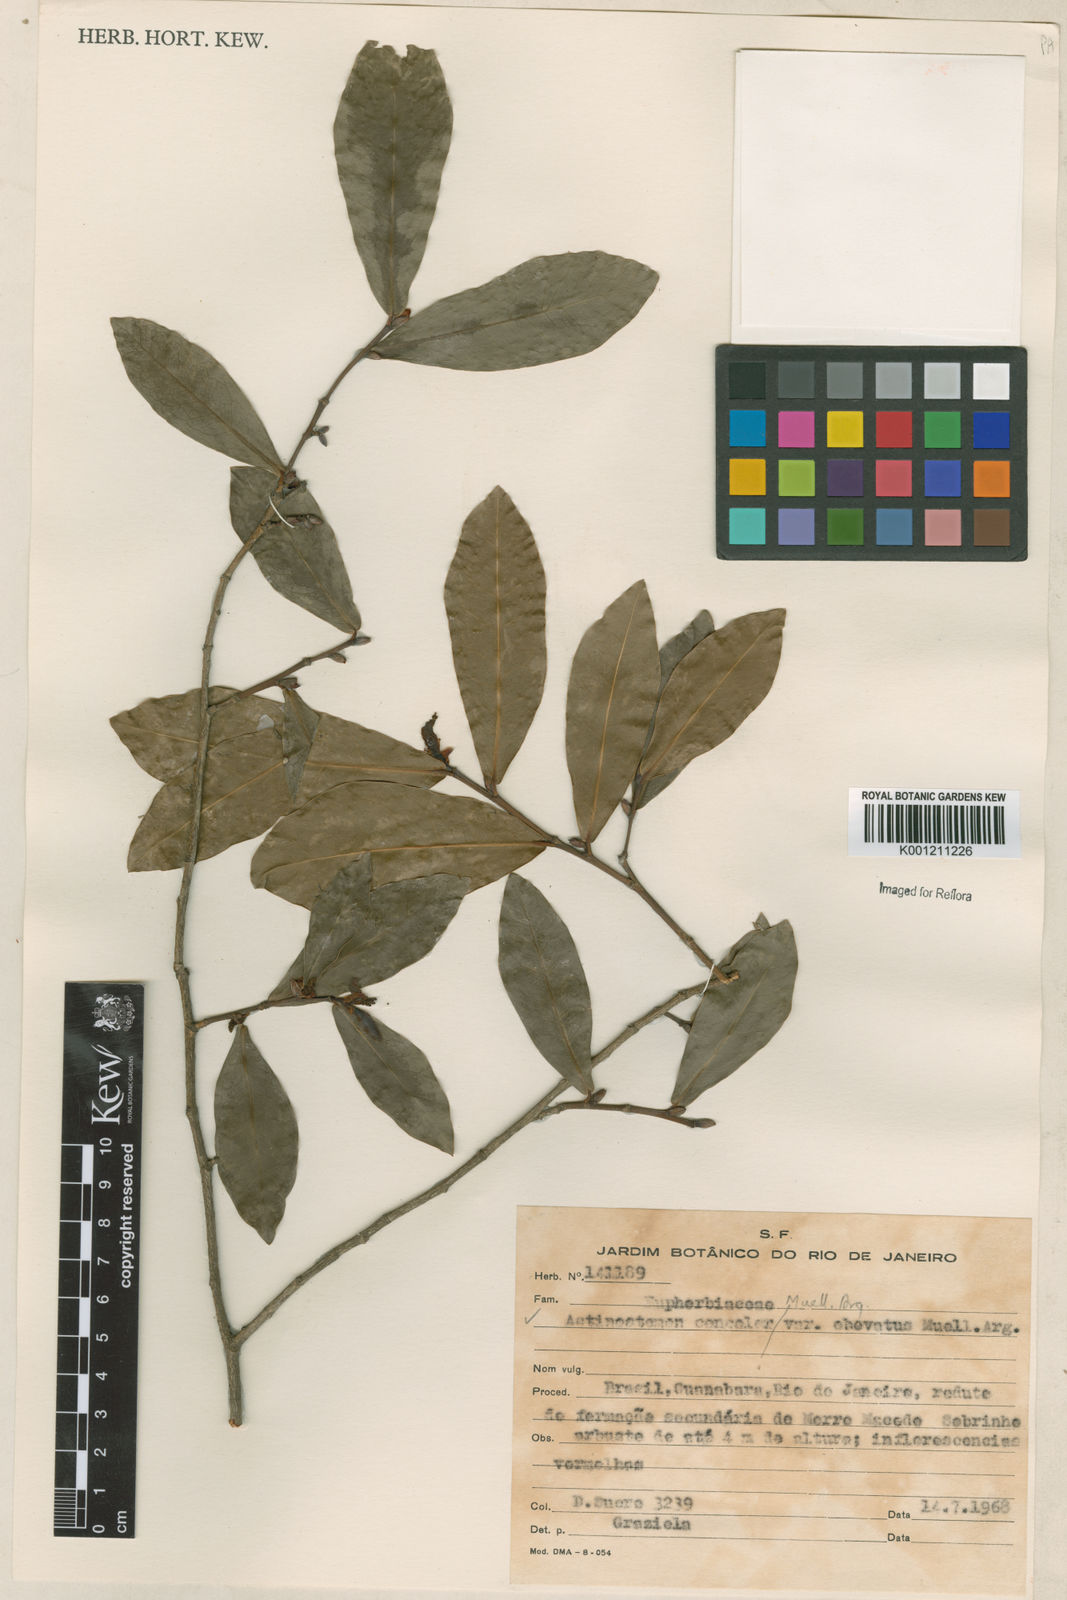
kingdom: Plantae
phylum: Tracheophyta
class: Magnoliopsida
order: Malpighiales
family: Euphorbiaceae
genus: Actinostemon
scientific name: Actinostemon
